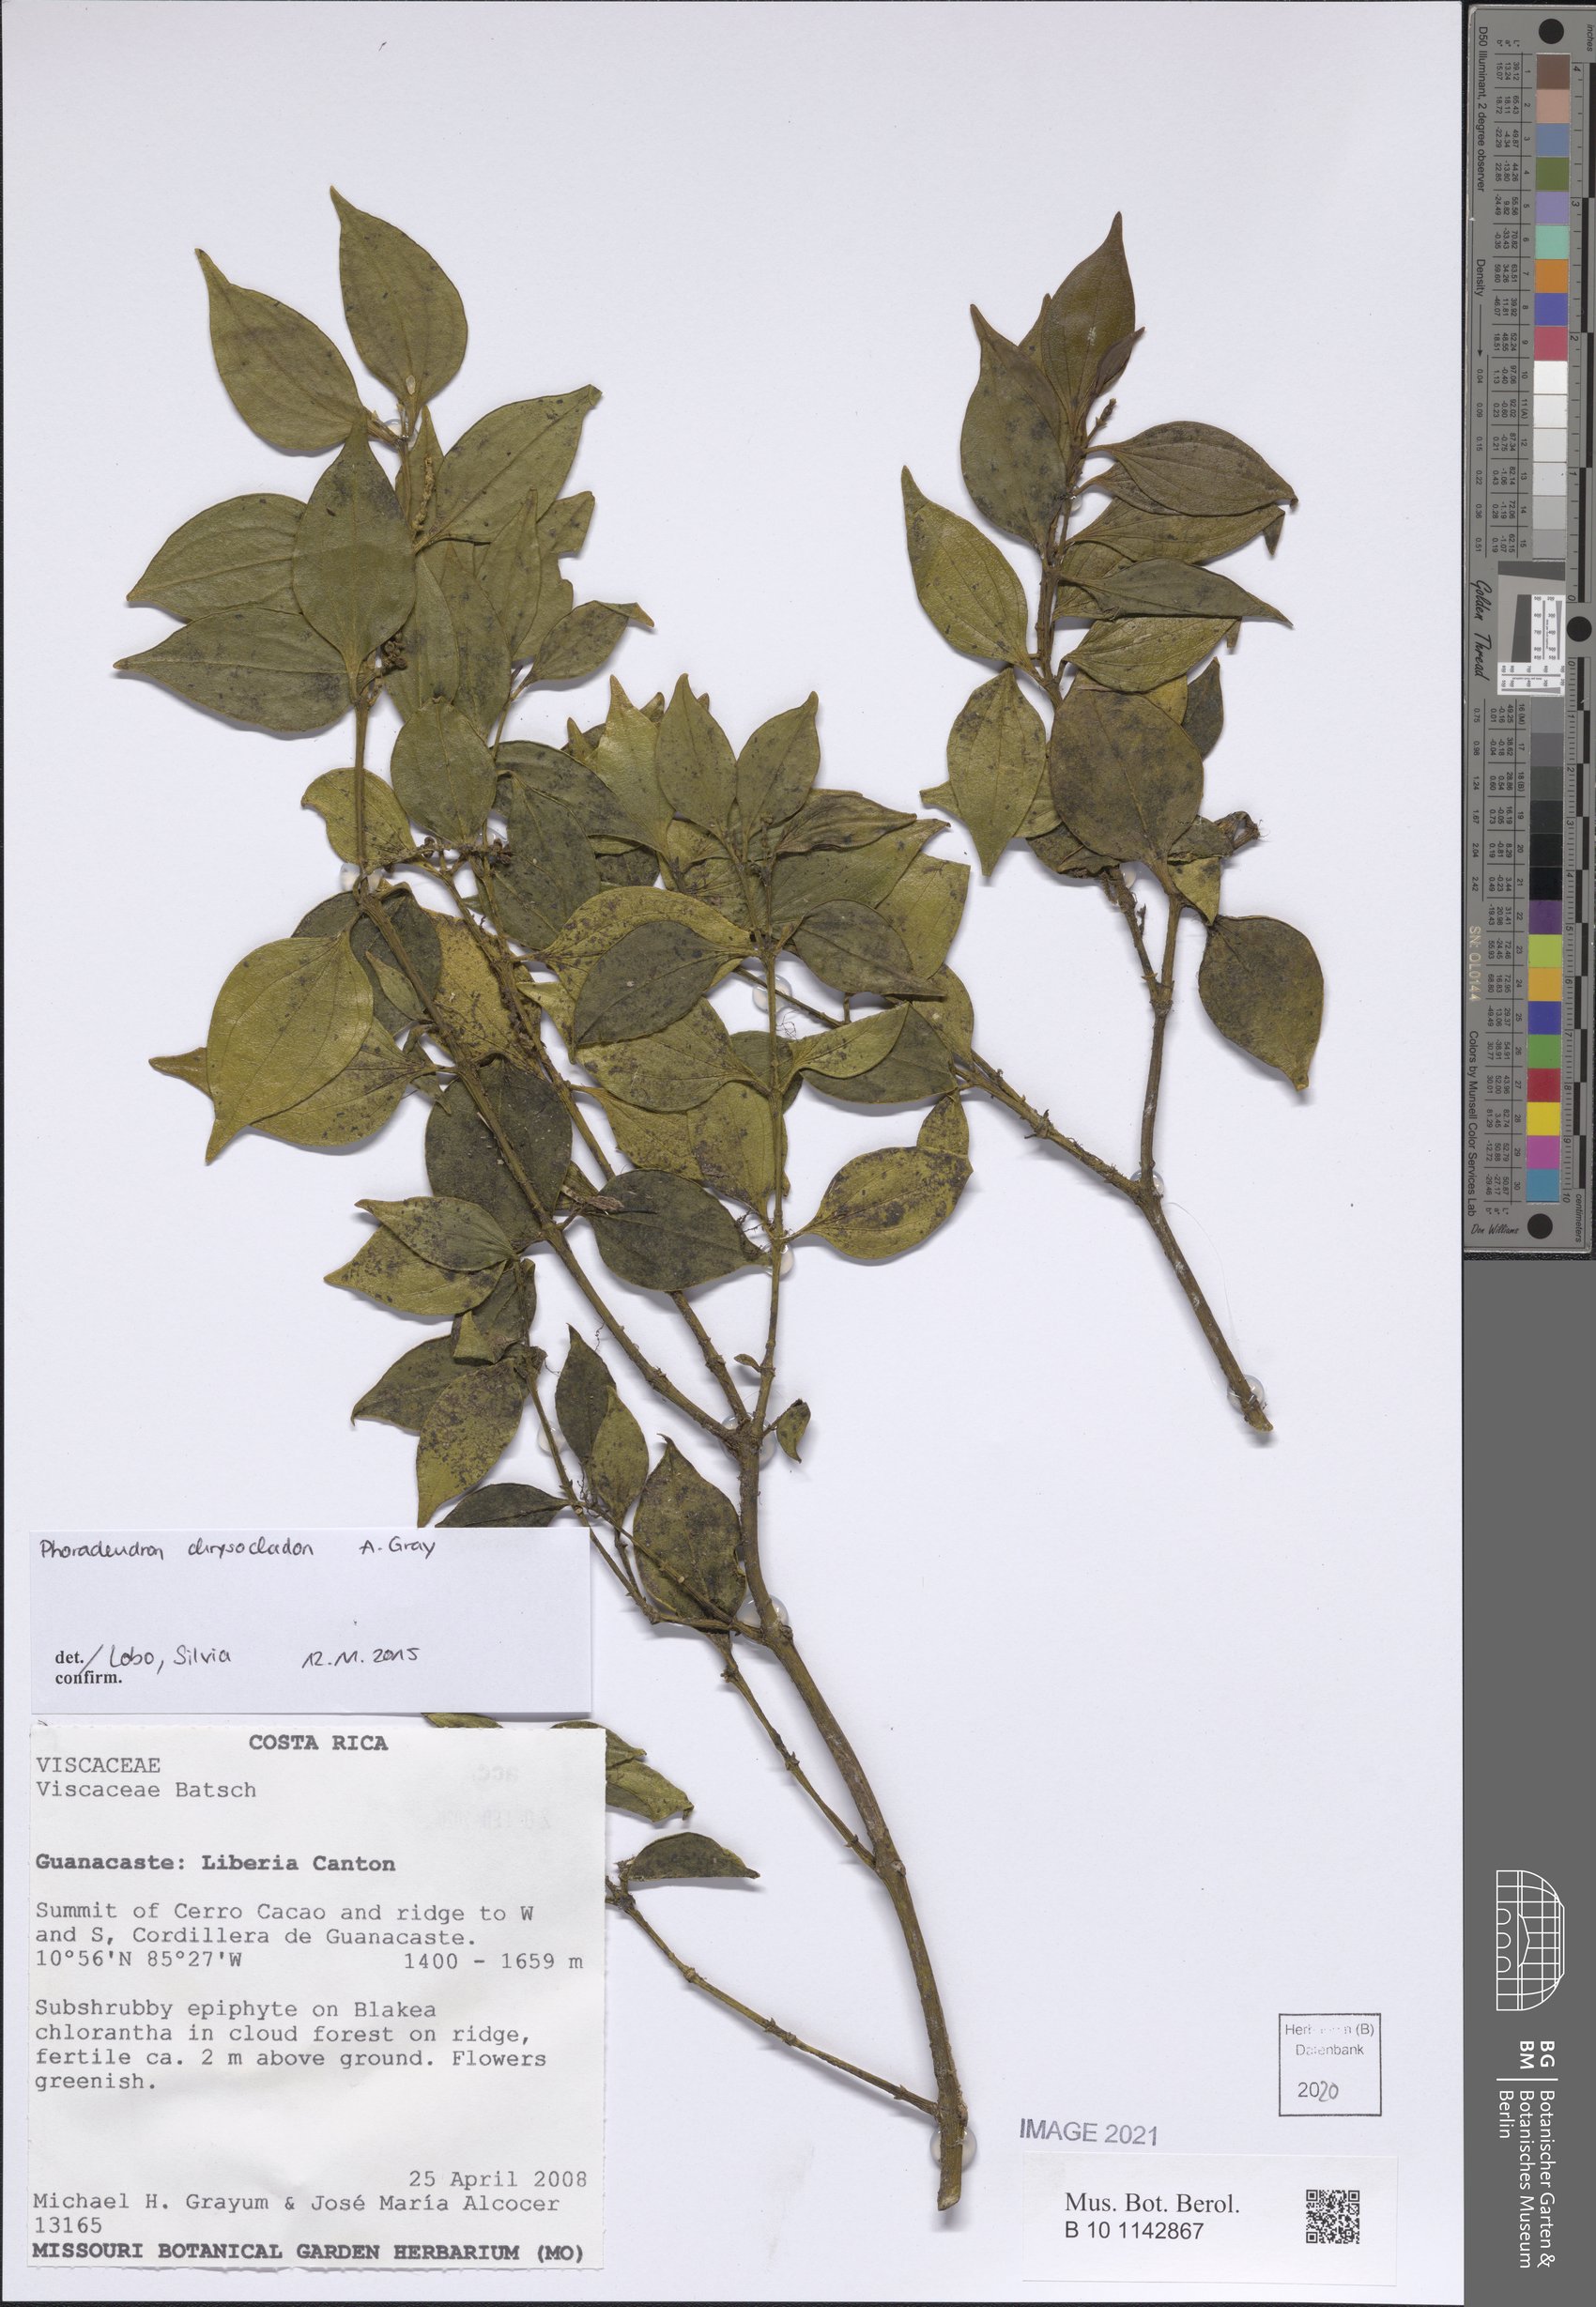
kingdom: Plantae
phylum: Tracheophyta
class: Magnoliopsida
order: Santalales
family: Viscaceae
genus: Phoradendron
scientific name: Phoradendron chrysocladon
